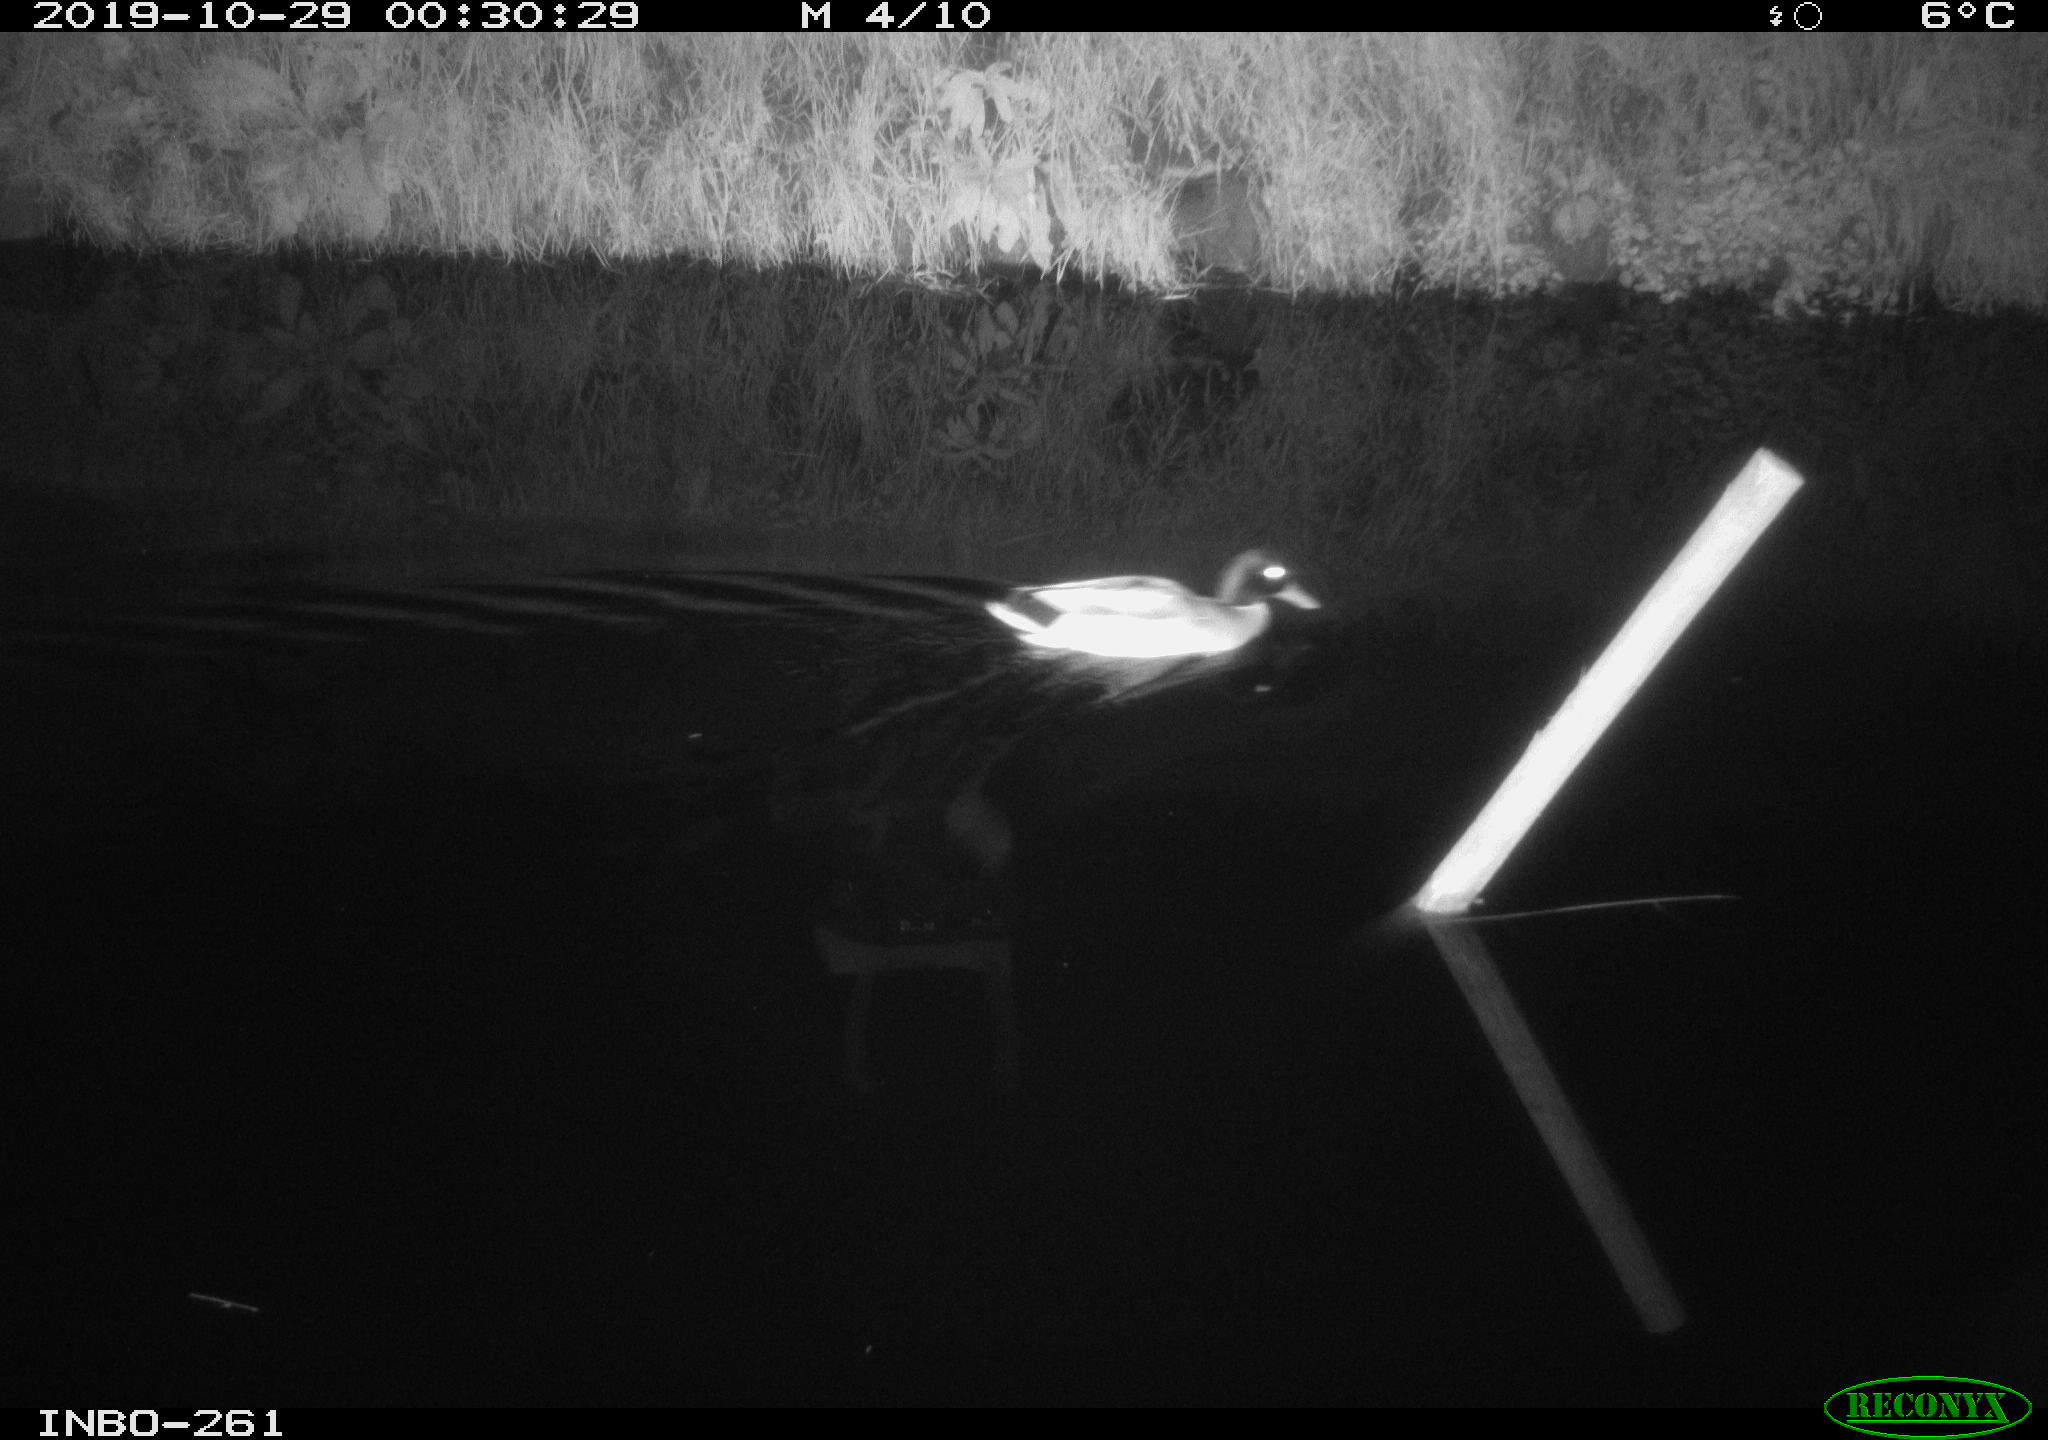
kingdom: Animalia
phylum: Chordata
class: Aves
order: Anseriformes
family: Anatidae
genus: Anas
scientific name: Anas platyrhynchos
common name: Mallard
